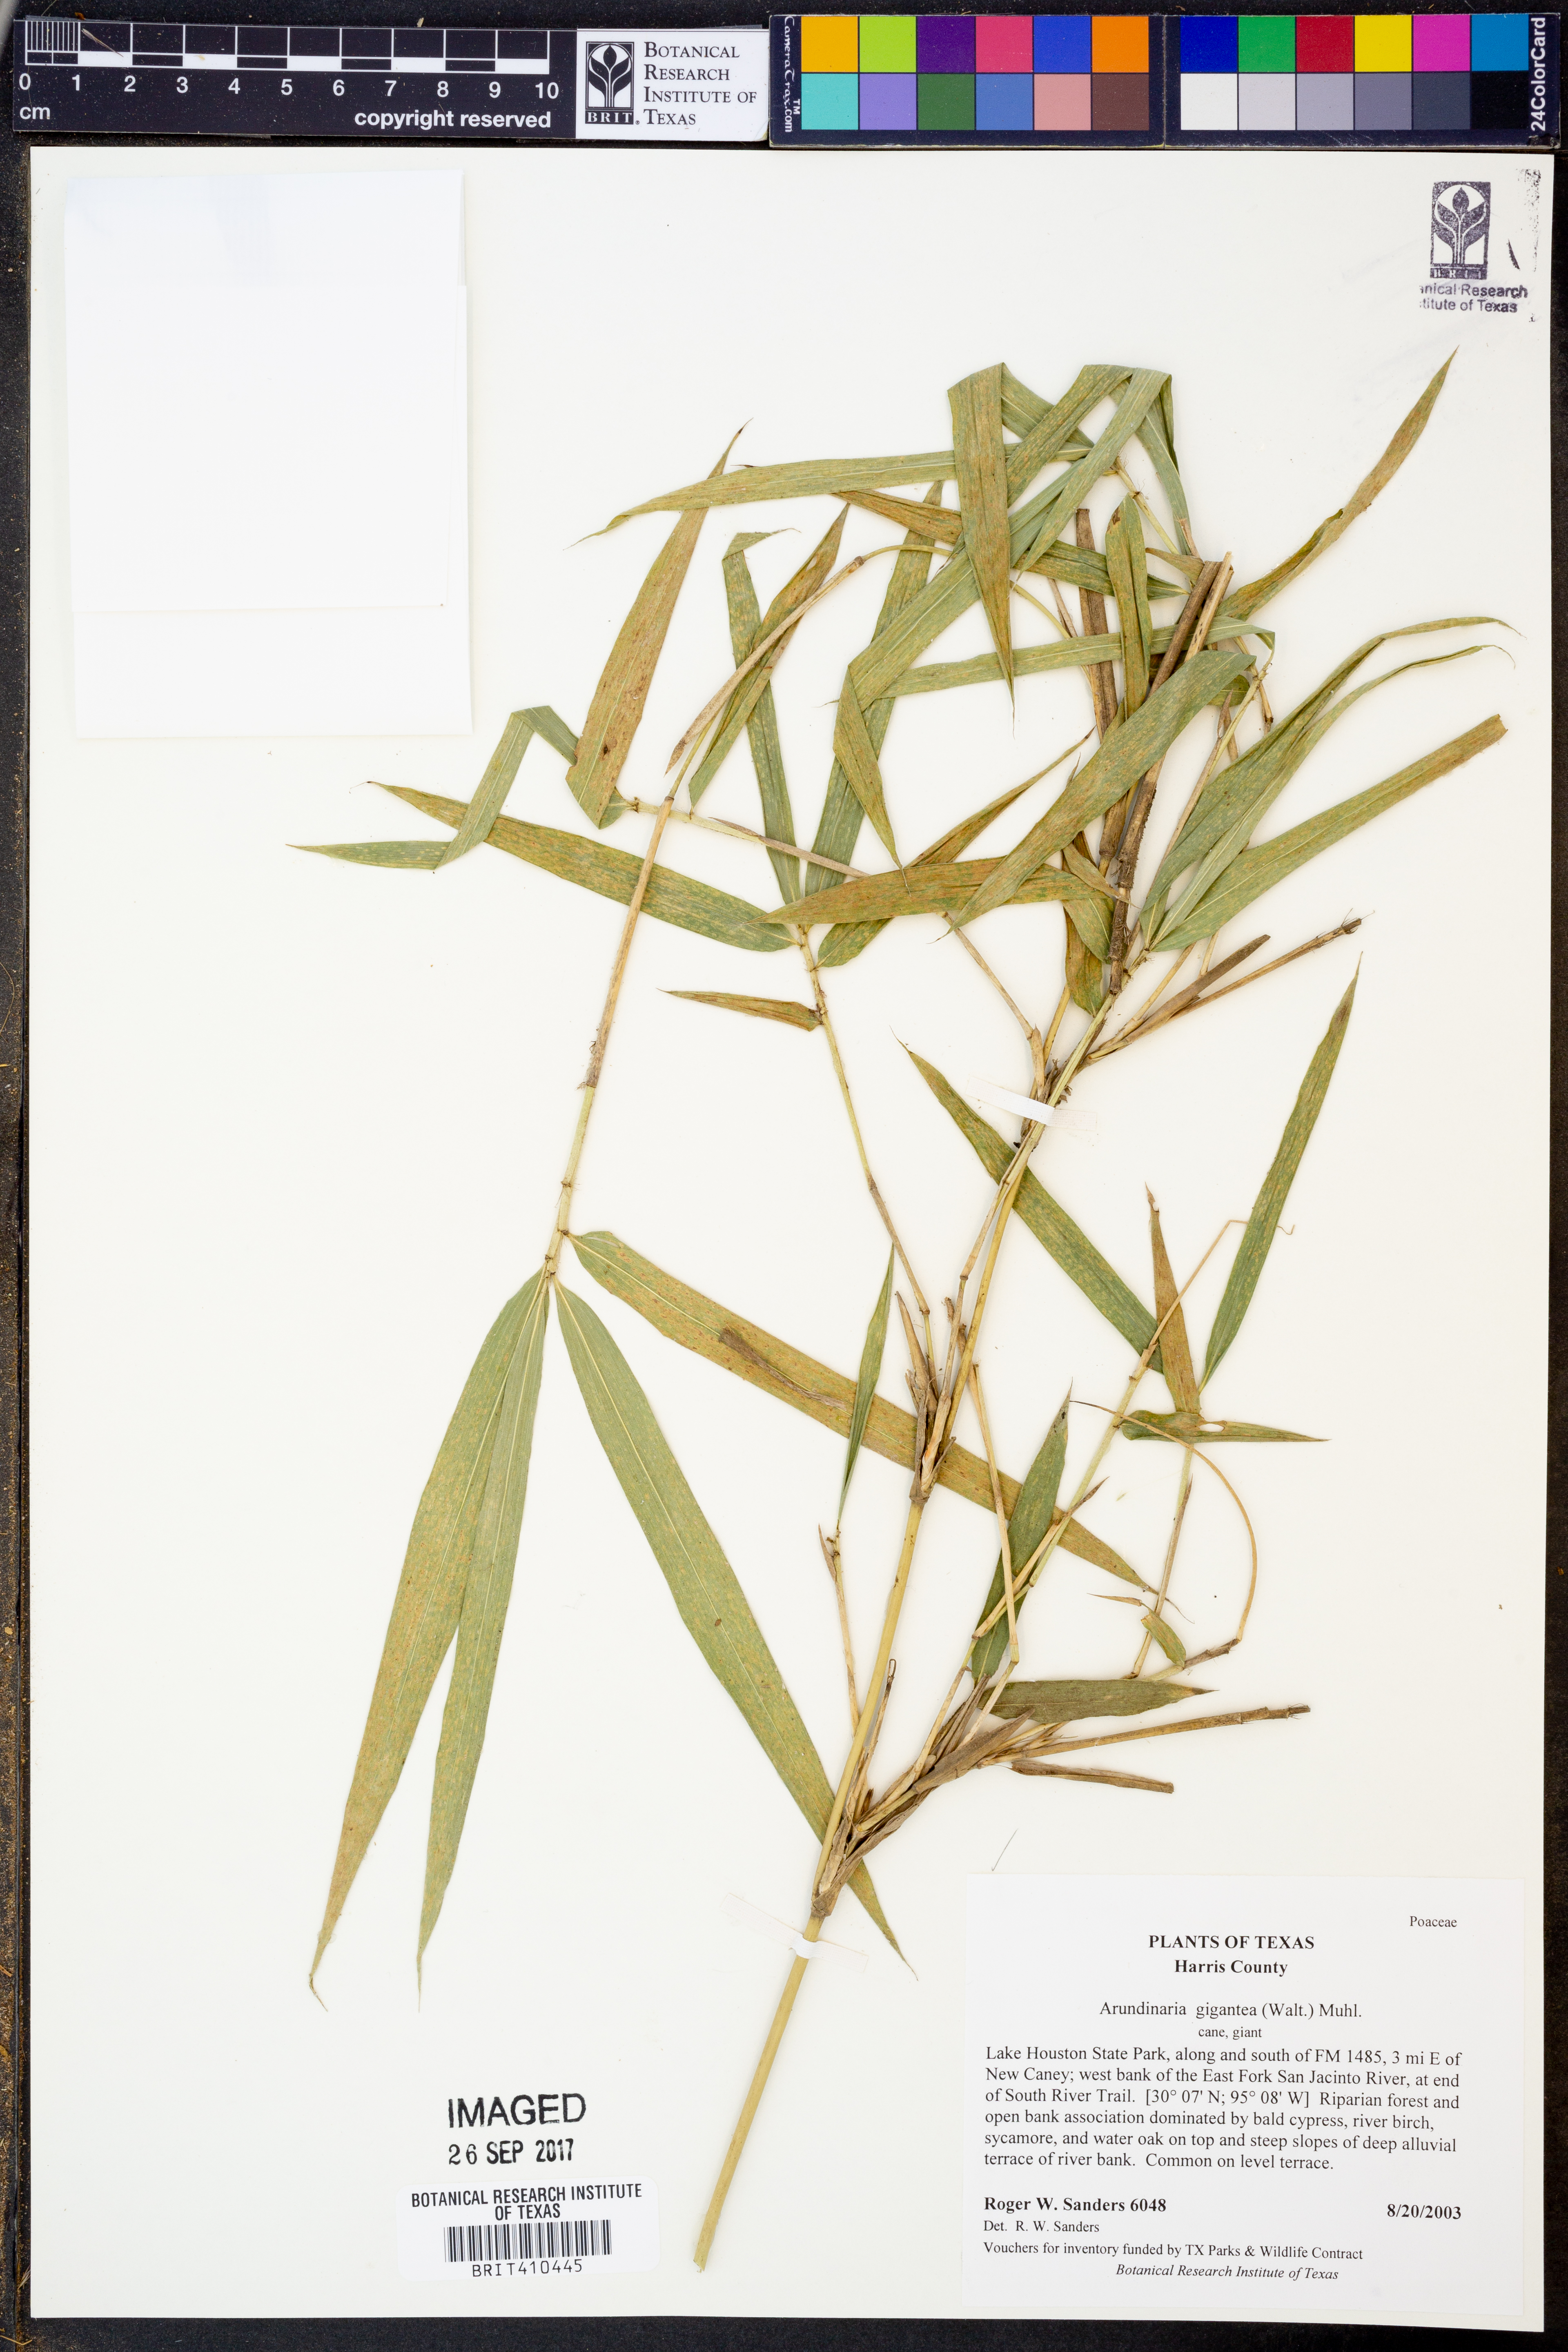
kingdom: Plantae
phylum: Tracheophyta
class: Liliopsida
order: Poales
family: Poaceae
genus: Arundinaria
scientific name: Arundinaria gigantea
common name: Giant cane
